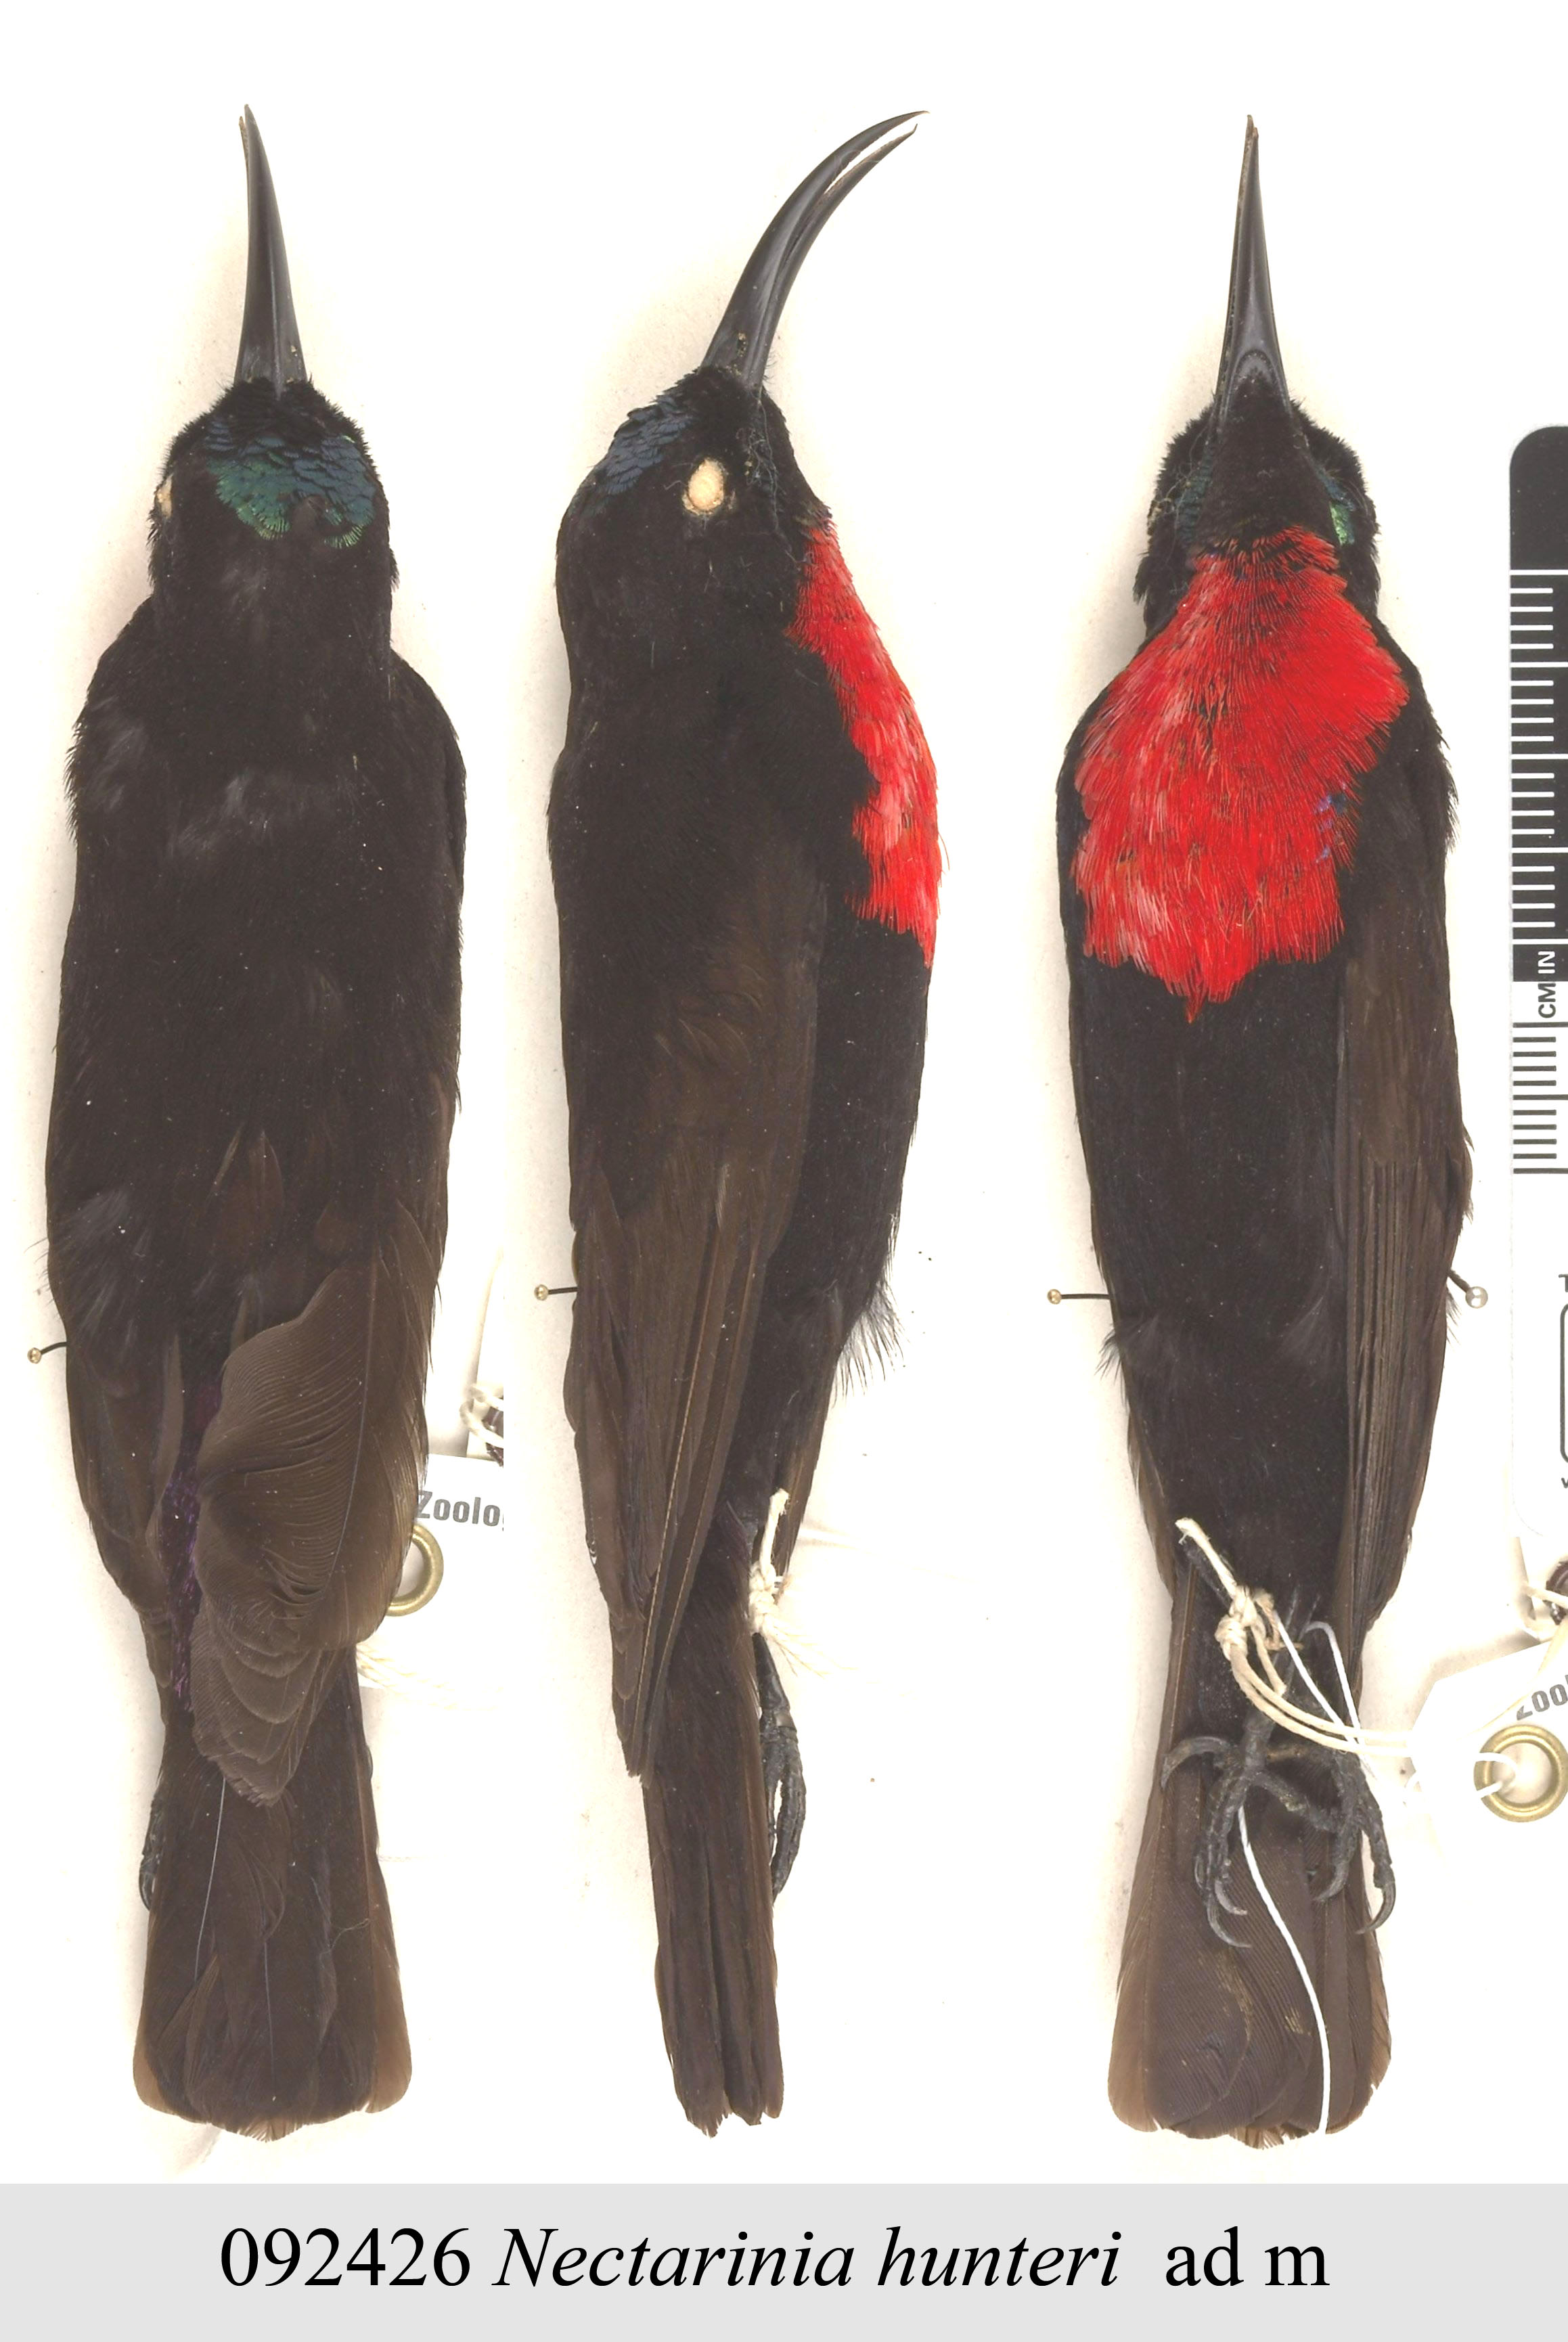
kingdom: Animalia
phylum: Chordata
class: Aves
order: Passeriformes
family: Nectariniidae
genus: Chalcomitra
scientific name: Chalcomitra hunteri
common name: Hunter's sunbird
